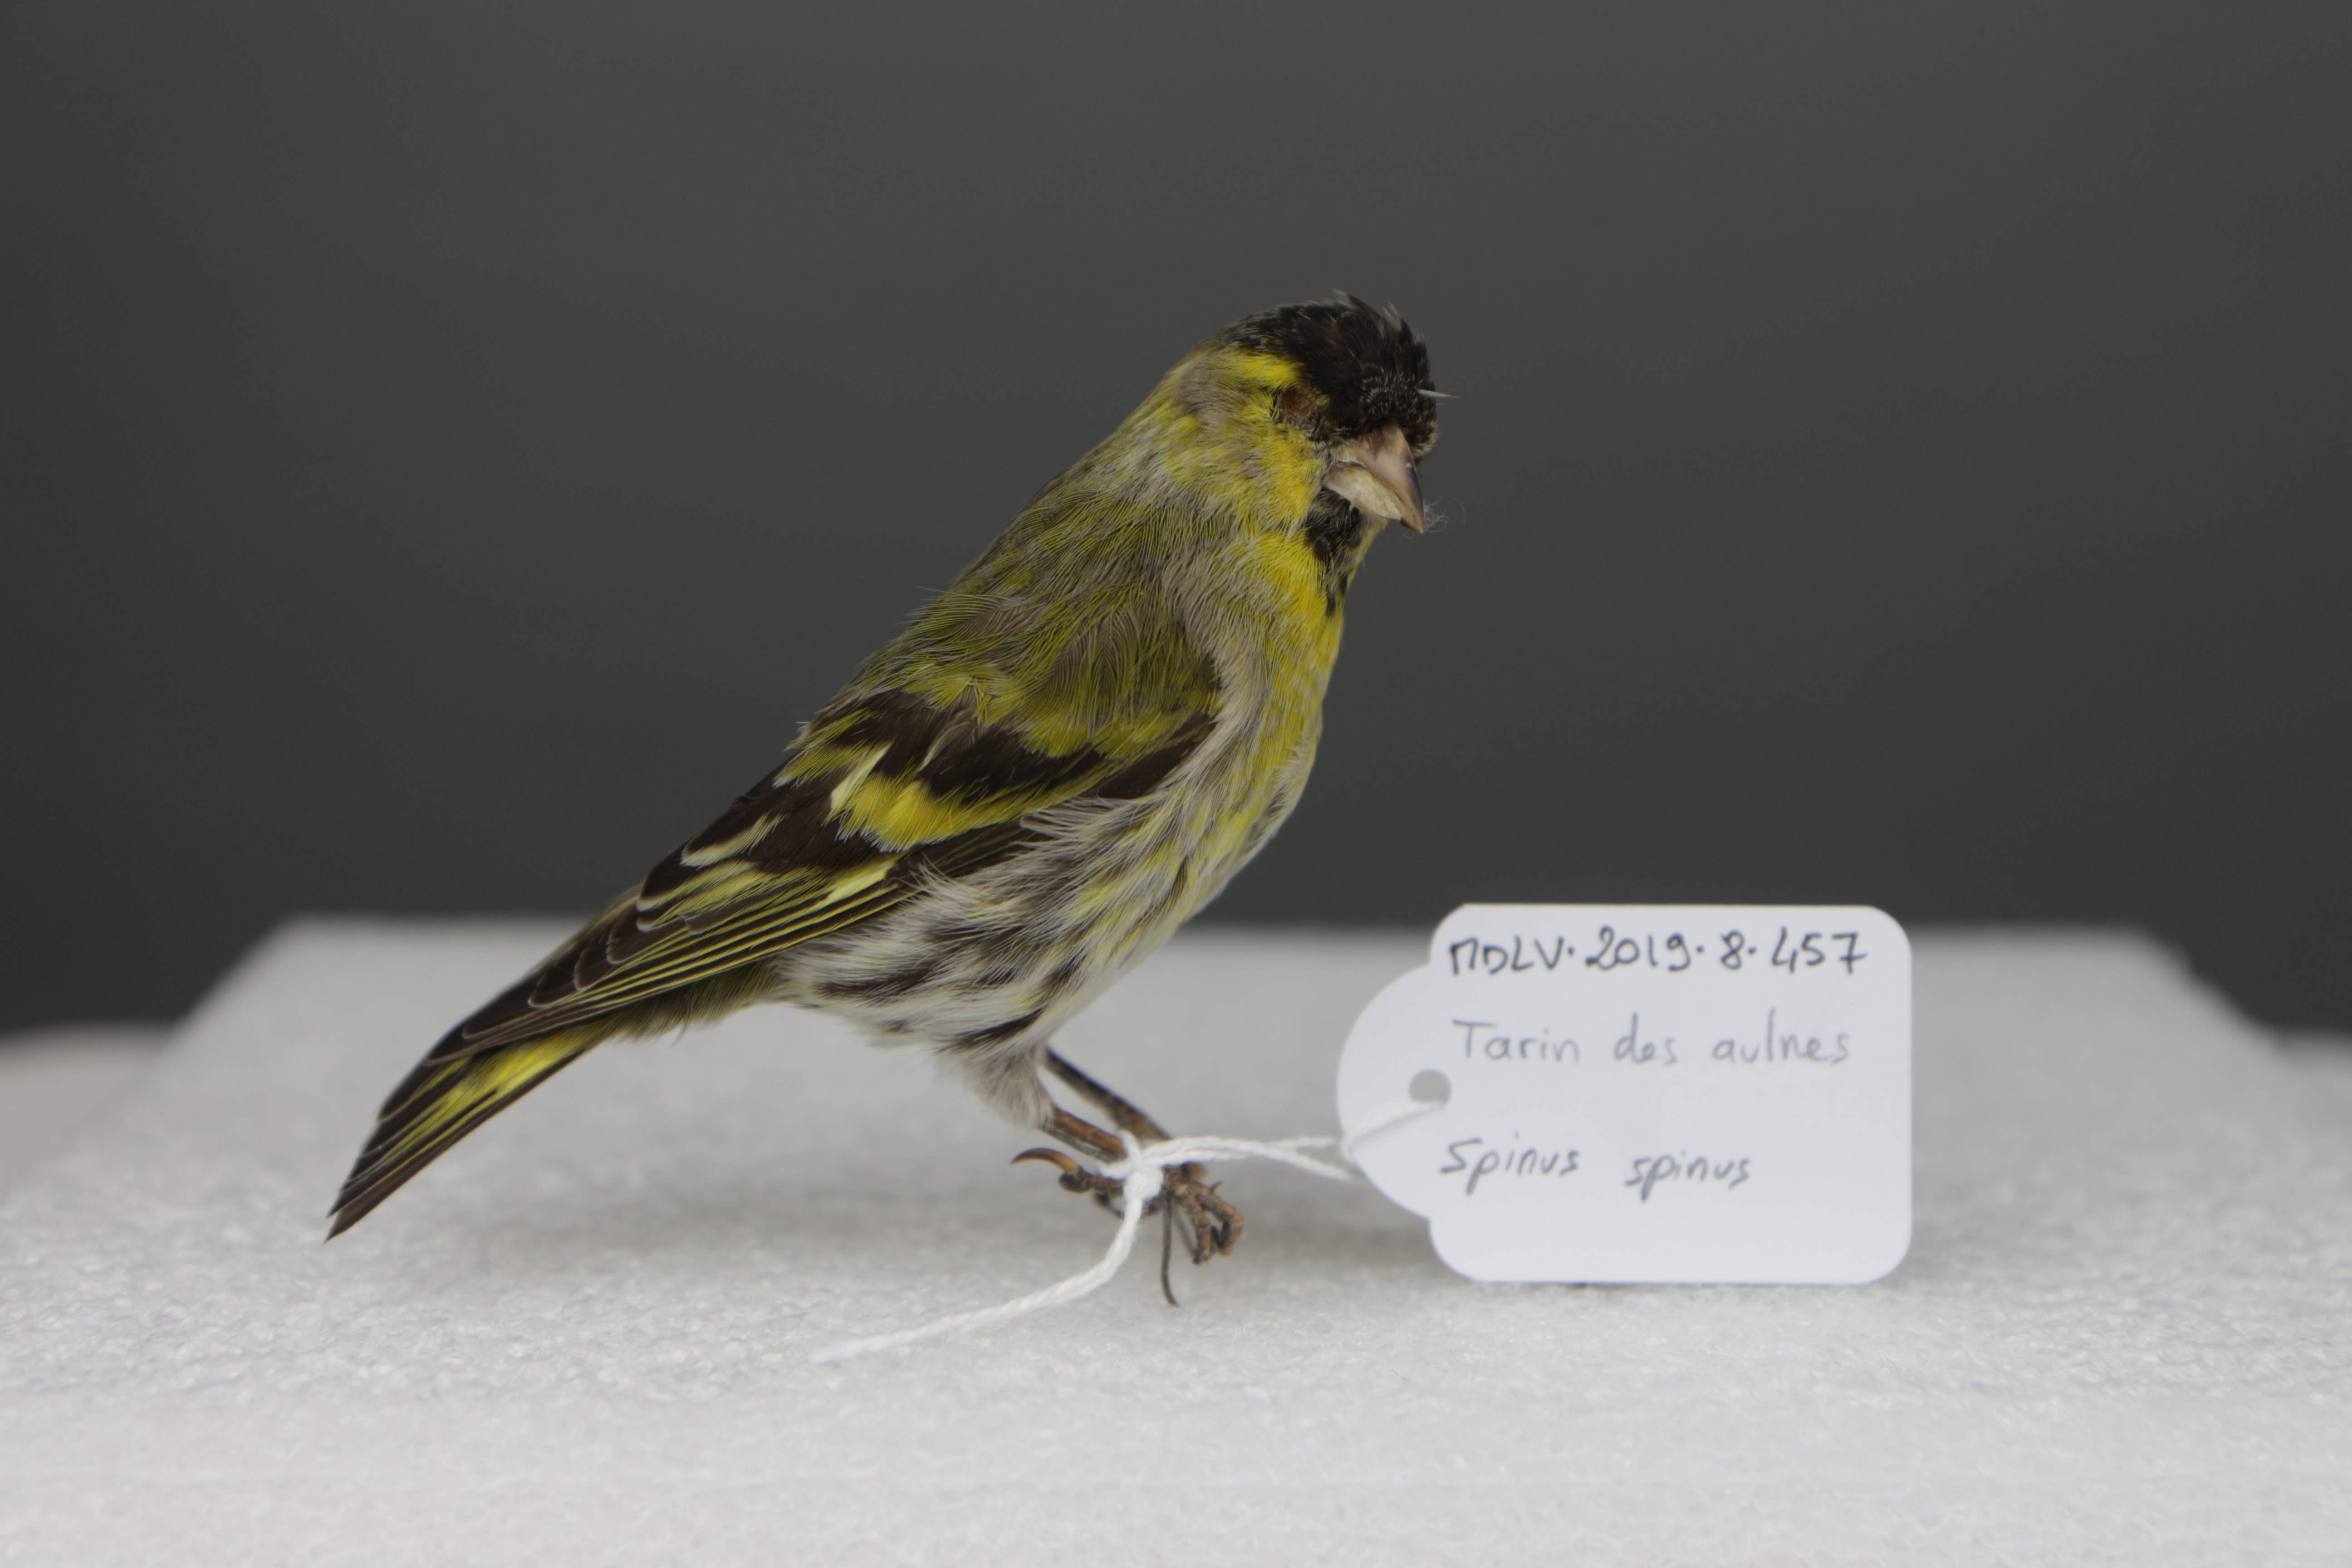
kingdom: Animalia
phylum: Chordata
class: Aves
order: Passeriformes
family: Fringillidae
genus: Spinus
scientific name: Spinus spinus
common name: Eurasian siskin
